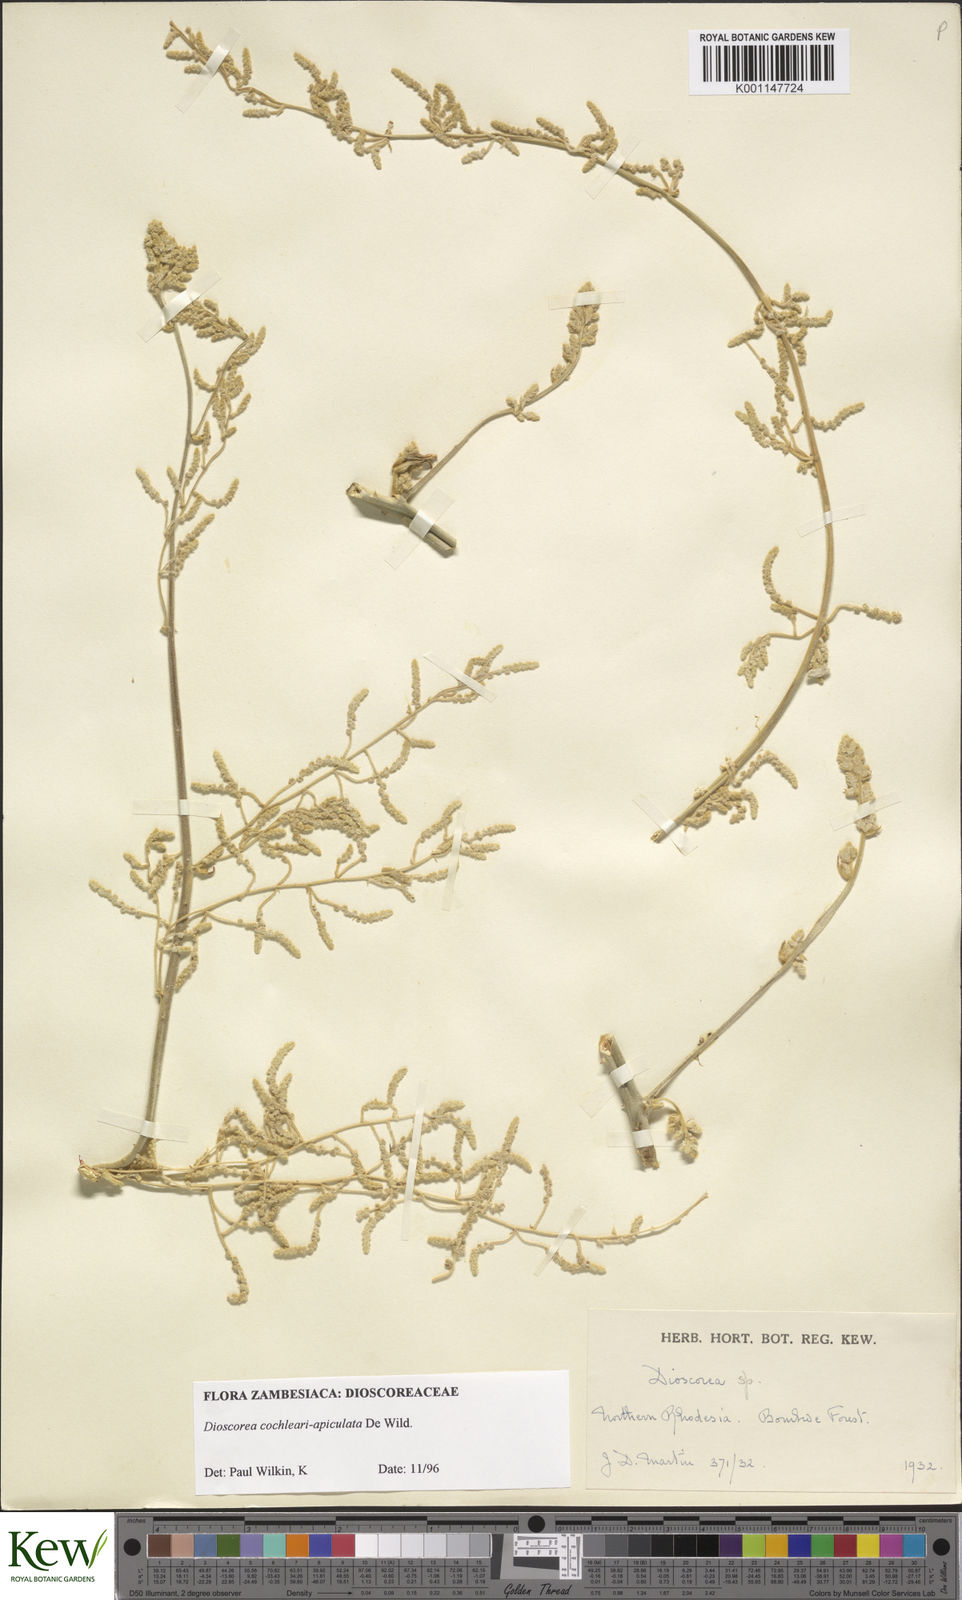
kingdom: Plantae
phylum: Tracheophyta
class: Liliopsida
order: Dioscoreales
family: Dioscoreaceae
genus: Dioscorea
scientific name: Dioscorea cochleariapiculata
